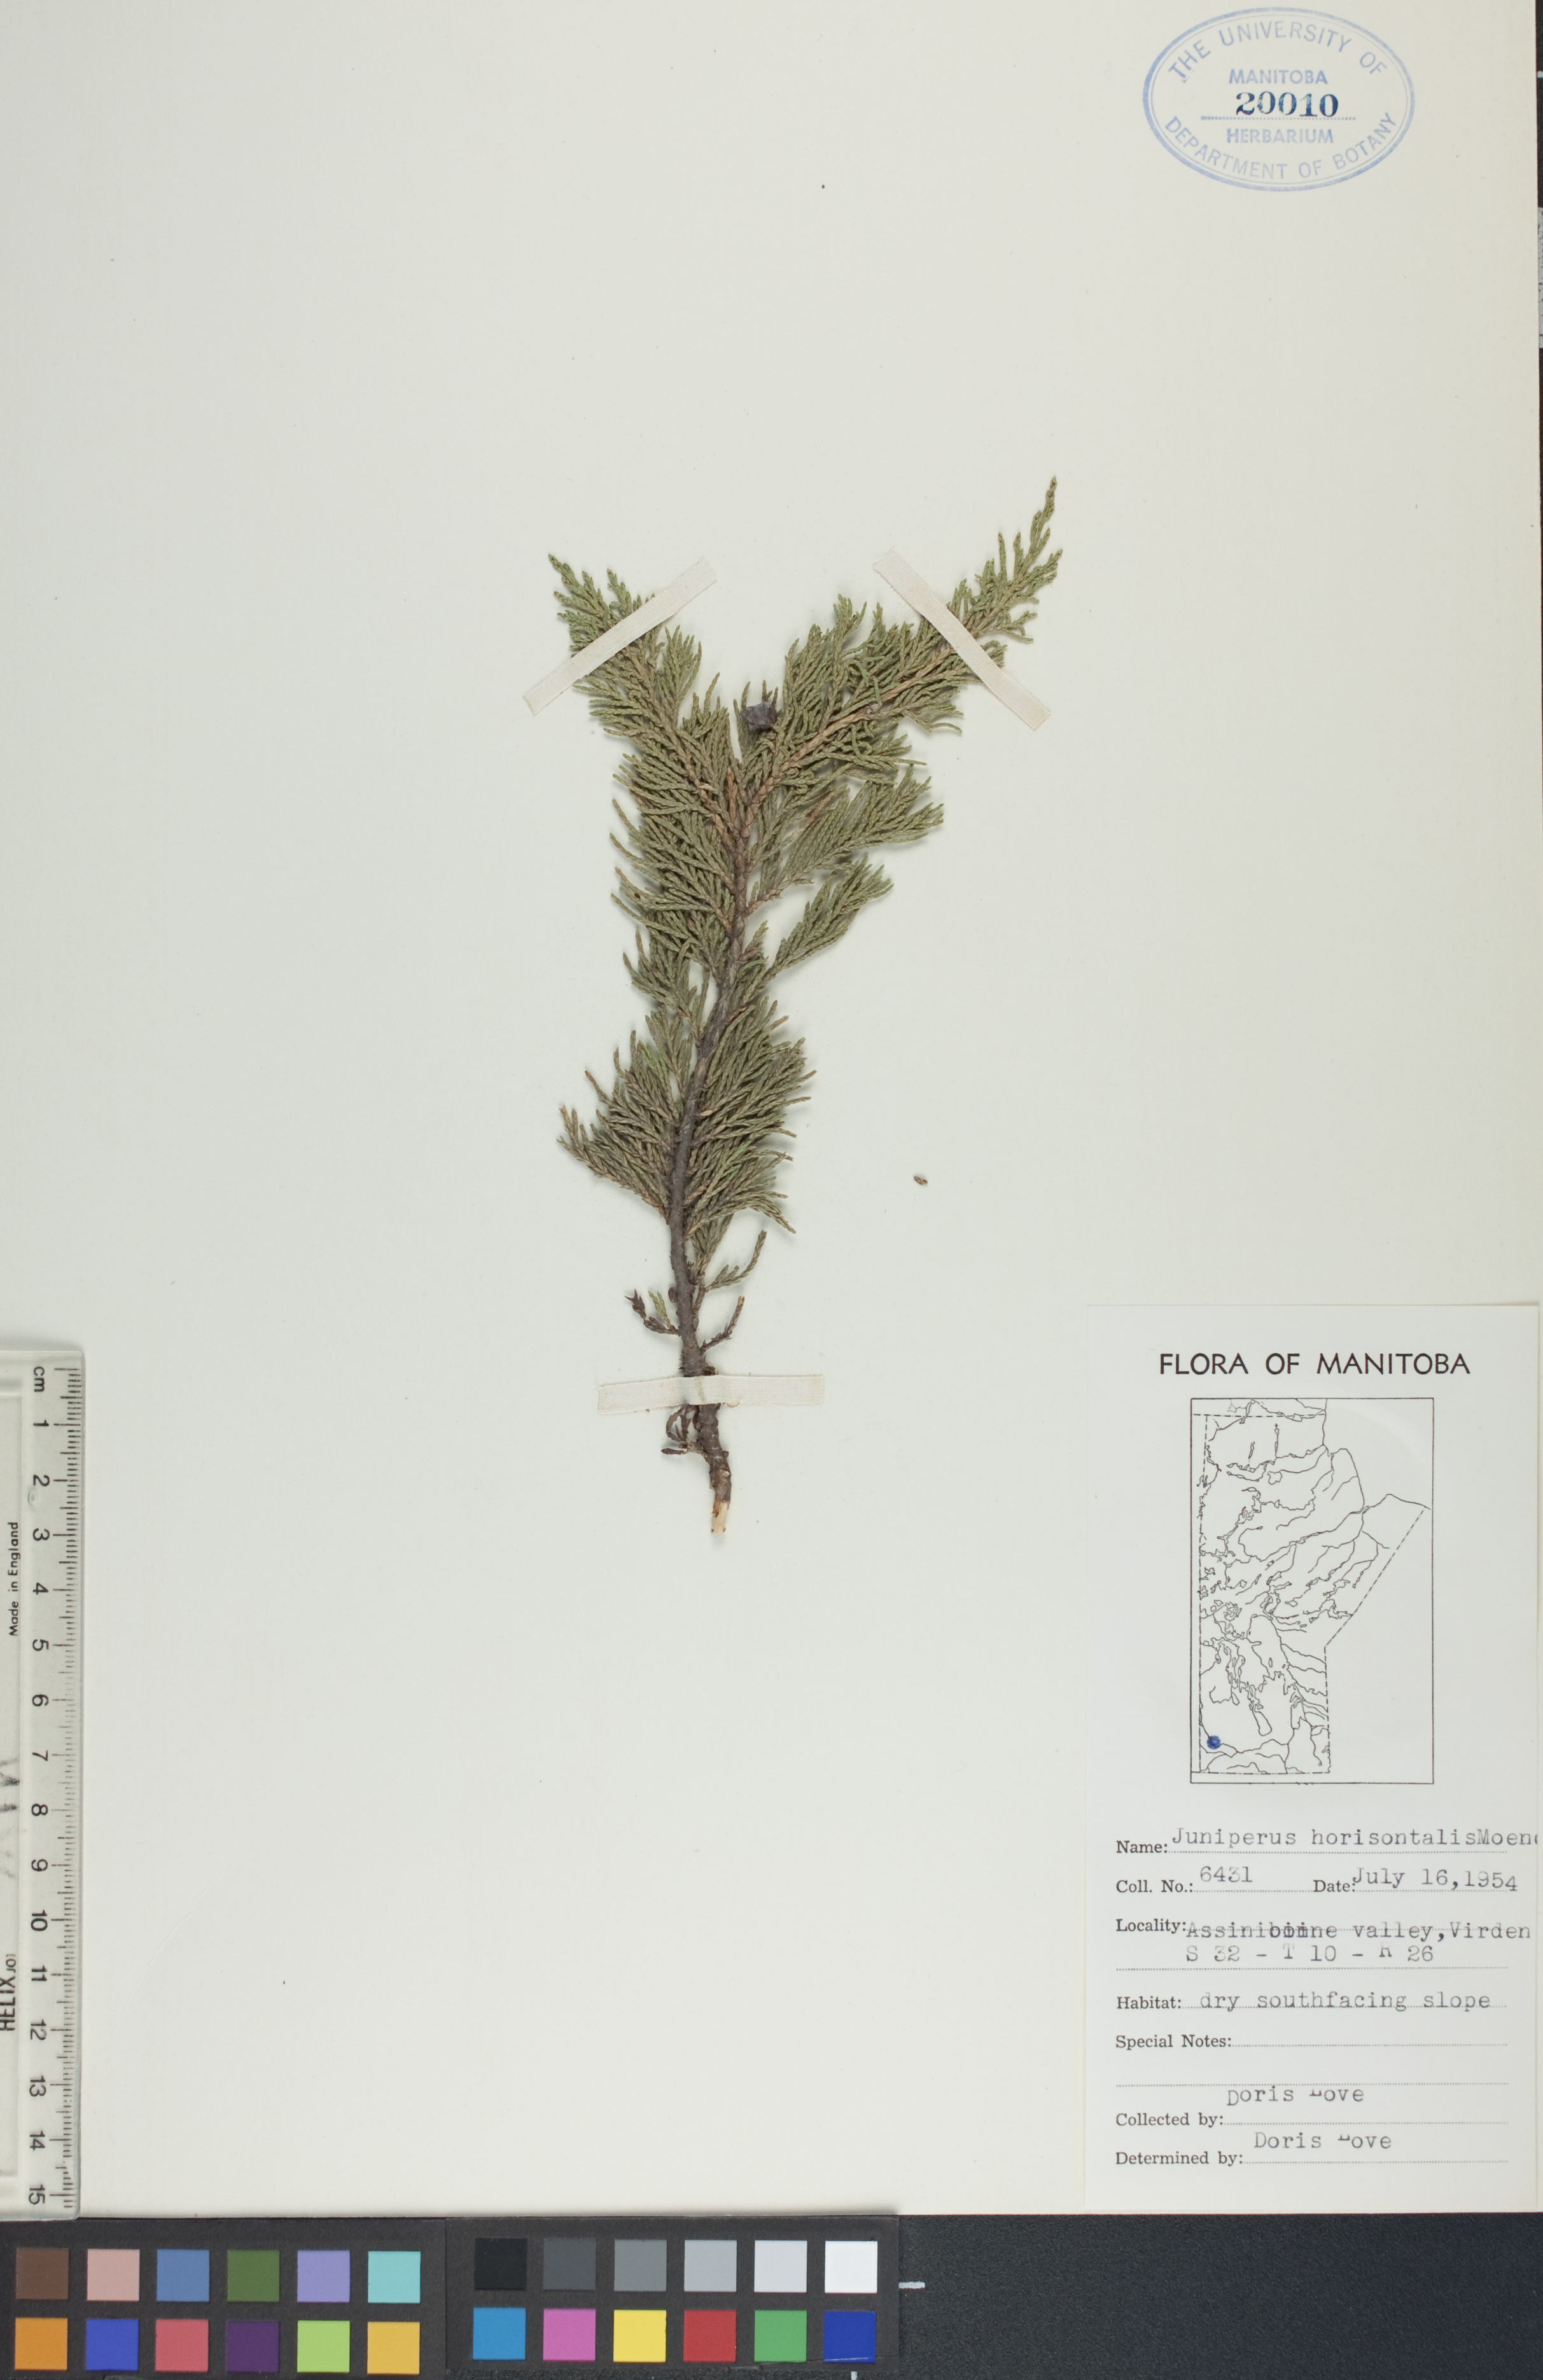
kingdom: Plantae
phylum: Tracheophyta
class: Pinopsida
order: Pinales
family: Cupressaceae
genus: Juniperus
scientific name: Juniperus horizontalis
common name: Creeping juniper
